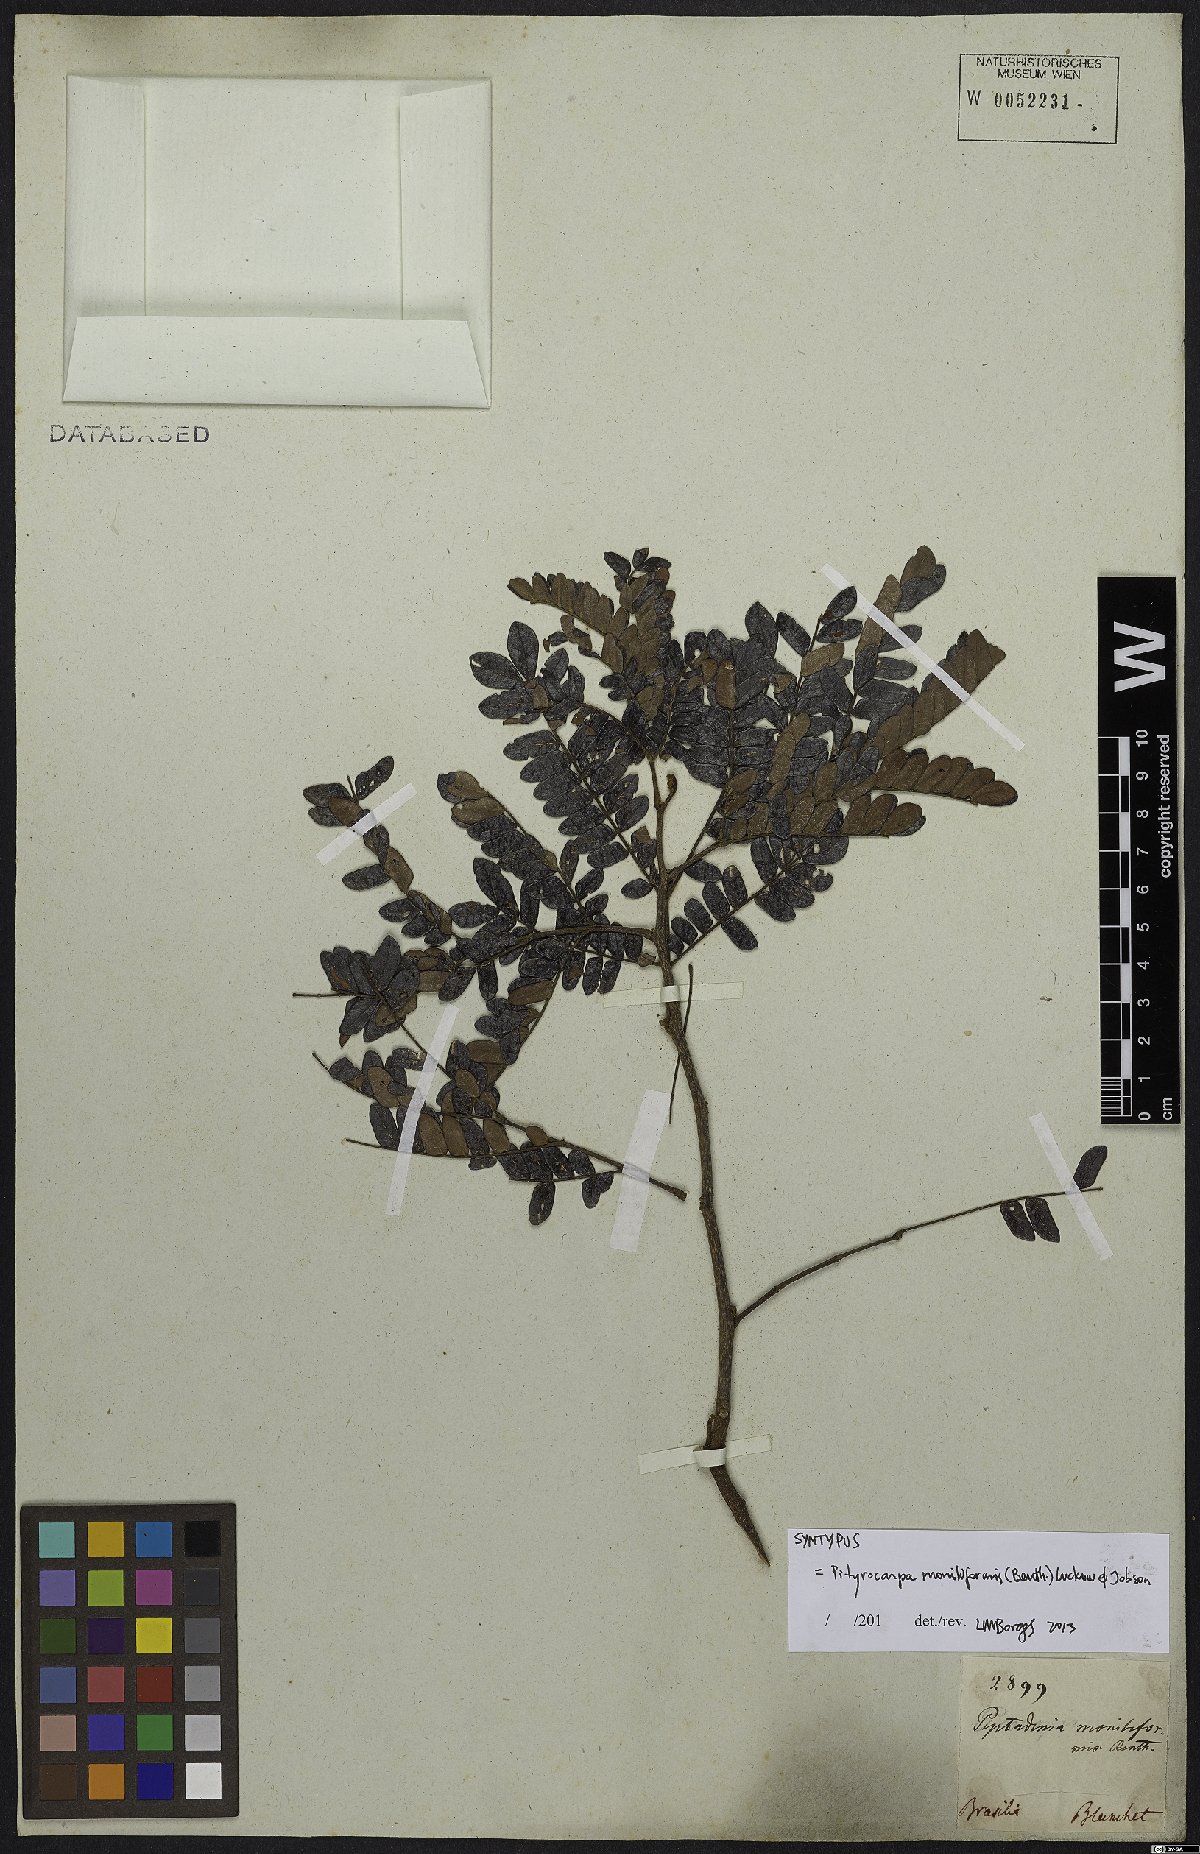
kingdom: Plantae
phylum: Tracheophyta
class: Magnoliopsida
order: Fabales
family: Fabaceae
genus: Pityrocarpa
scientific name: Pityrocarpa moniliformis
